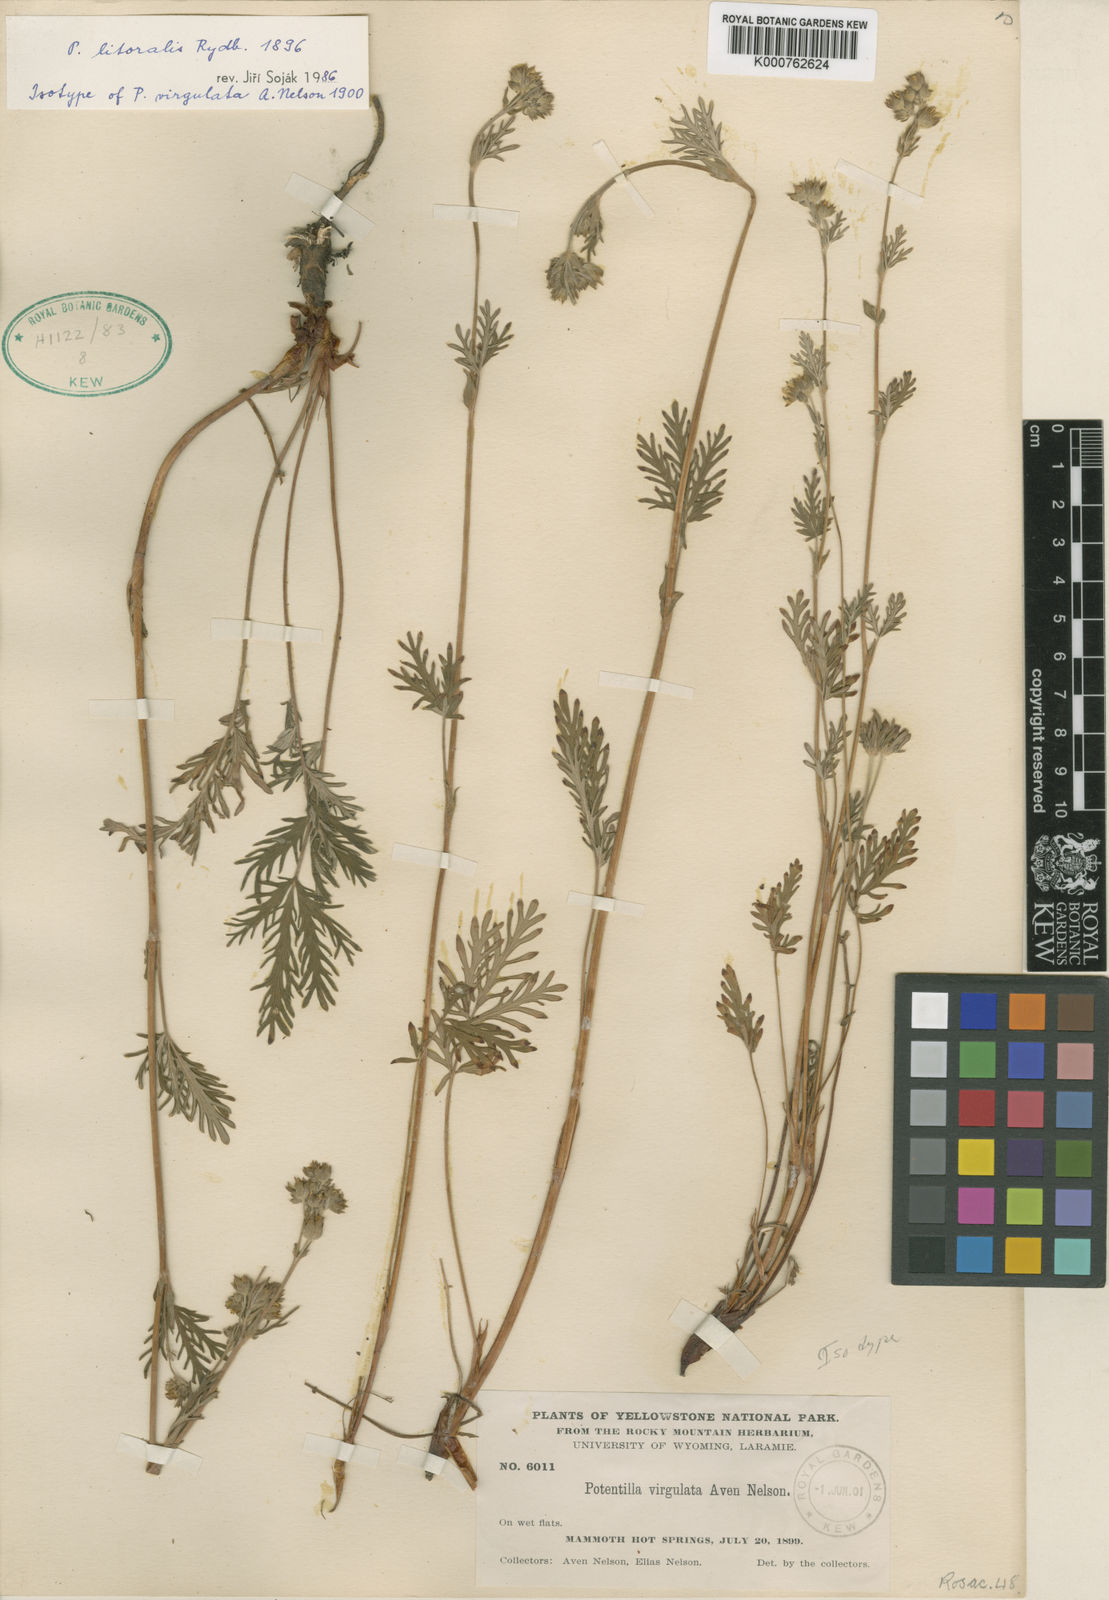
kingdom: Plantae
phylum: Tracheophyta
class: Magnoliopsida
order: Rosales
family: Rosaceae
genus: Potentilla
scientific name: Potentilla litoralis
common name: Coast cinquefoil
